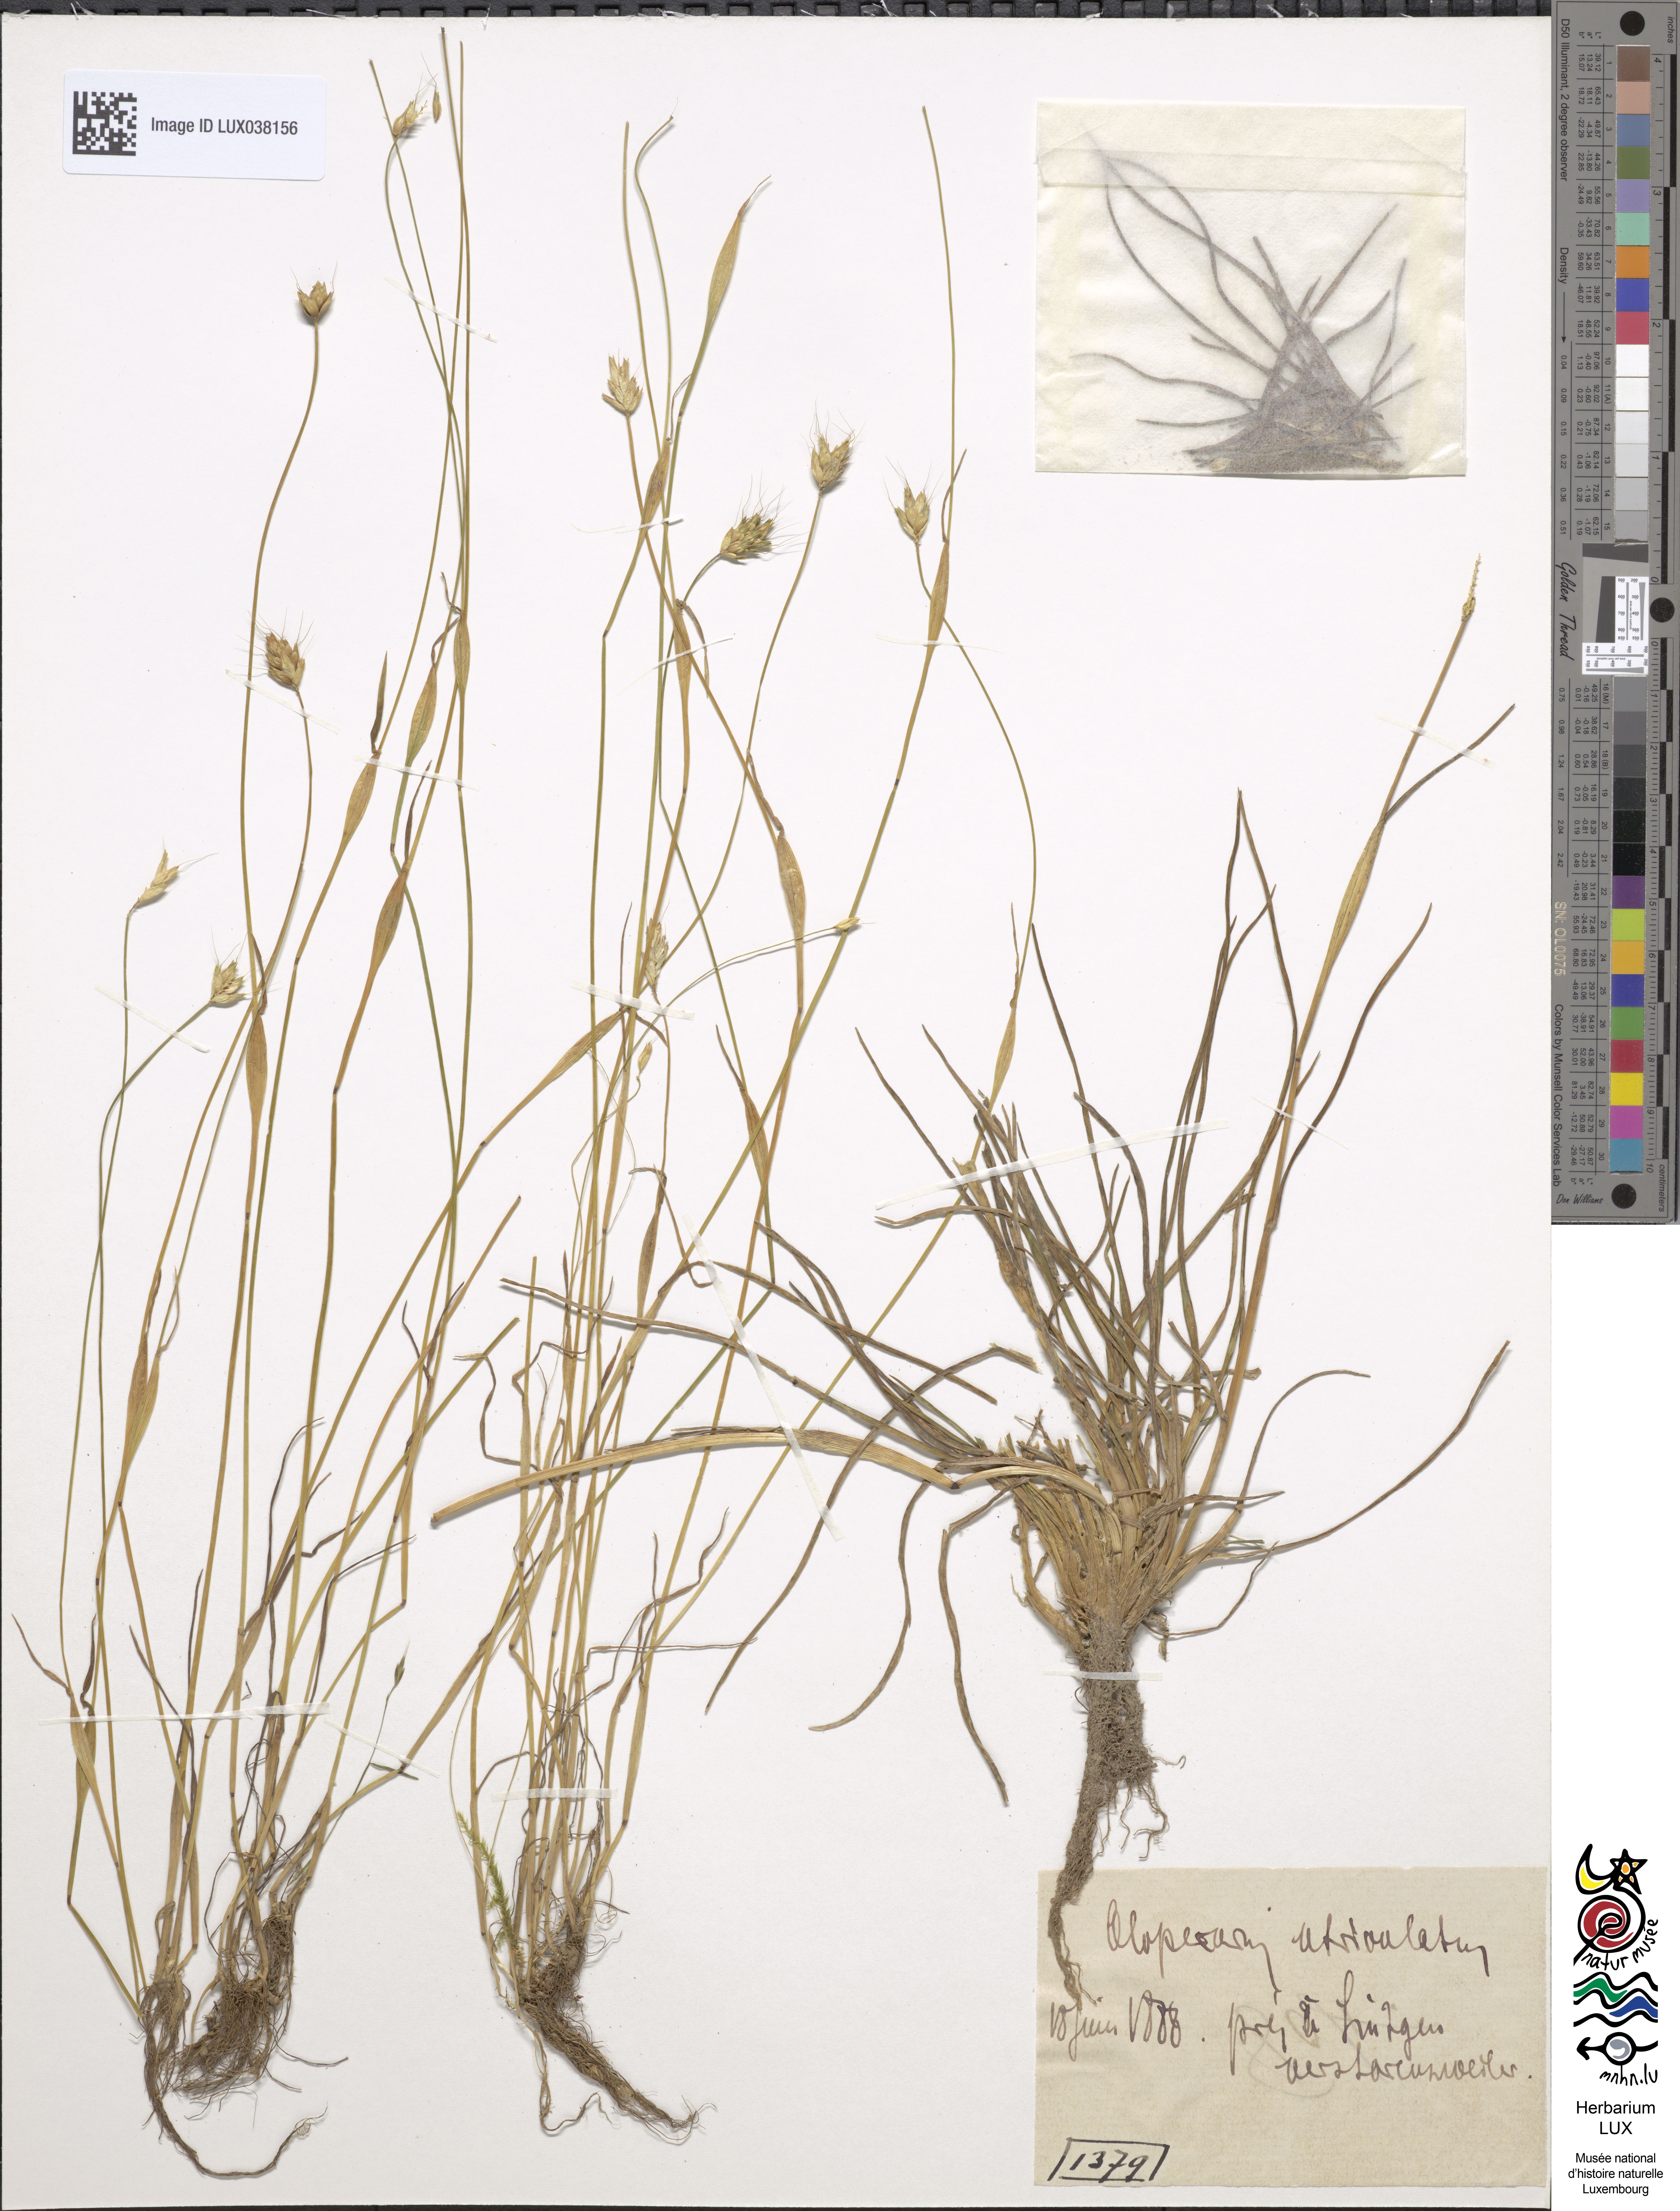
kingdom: Plantae
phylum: Tracheophyta
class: Liliopsida
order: Poales
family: Poaceae
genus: Alopecurus
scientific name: Alopecurus rendlei
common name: Rendle's meadow foxtail
